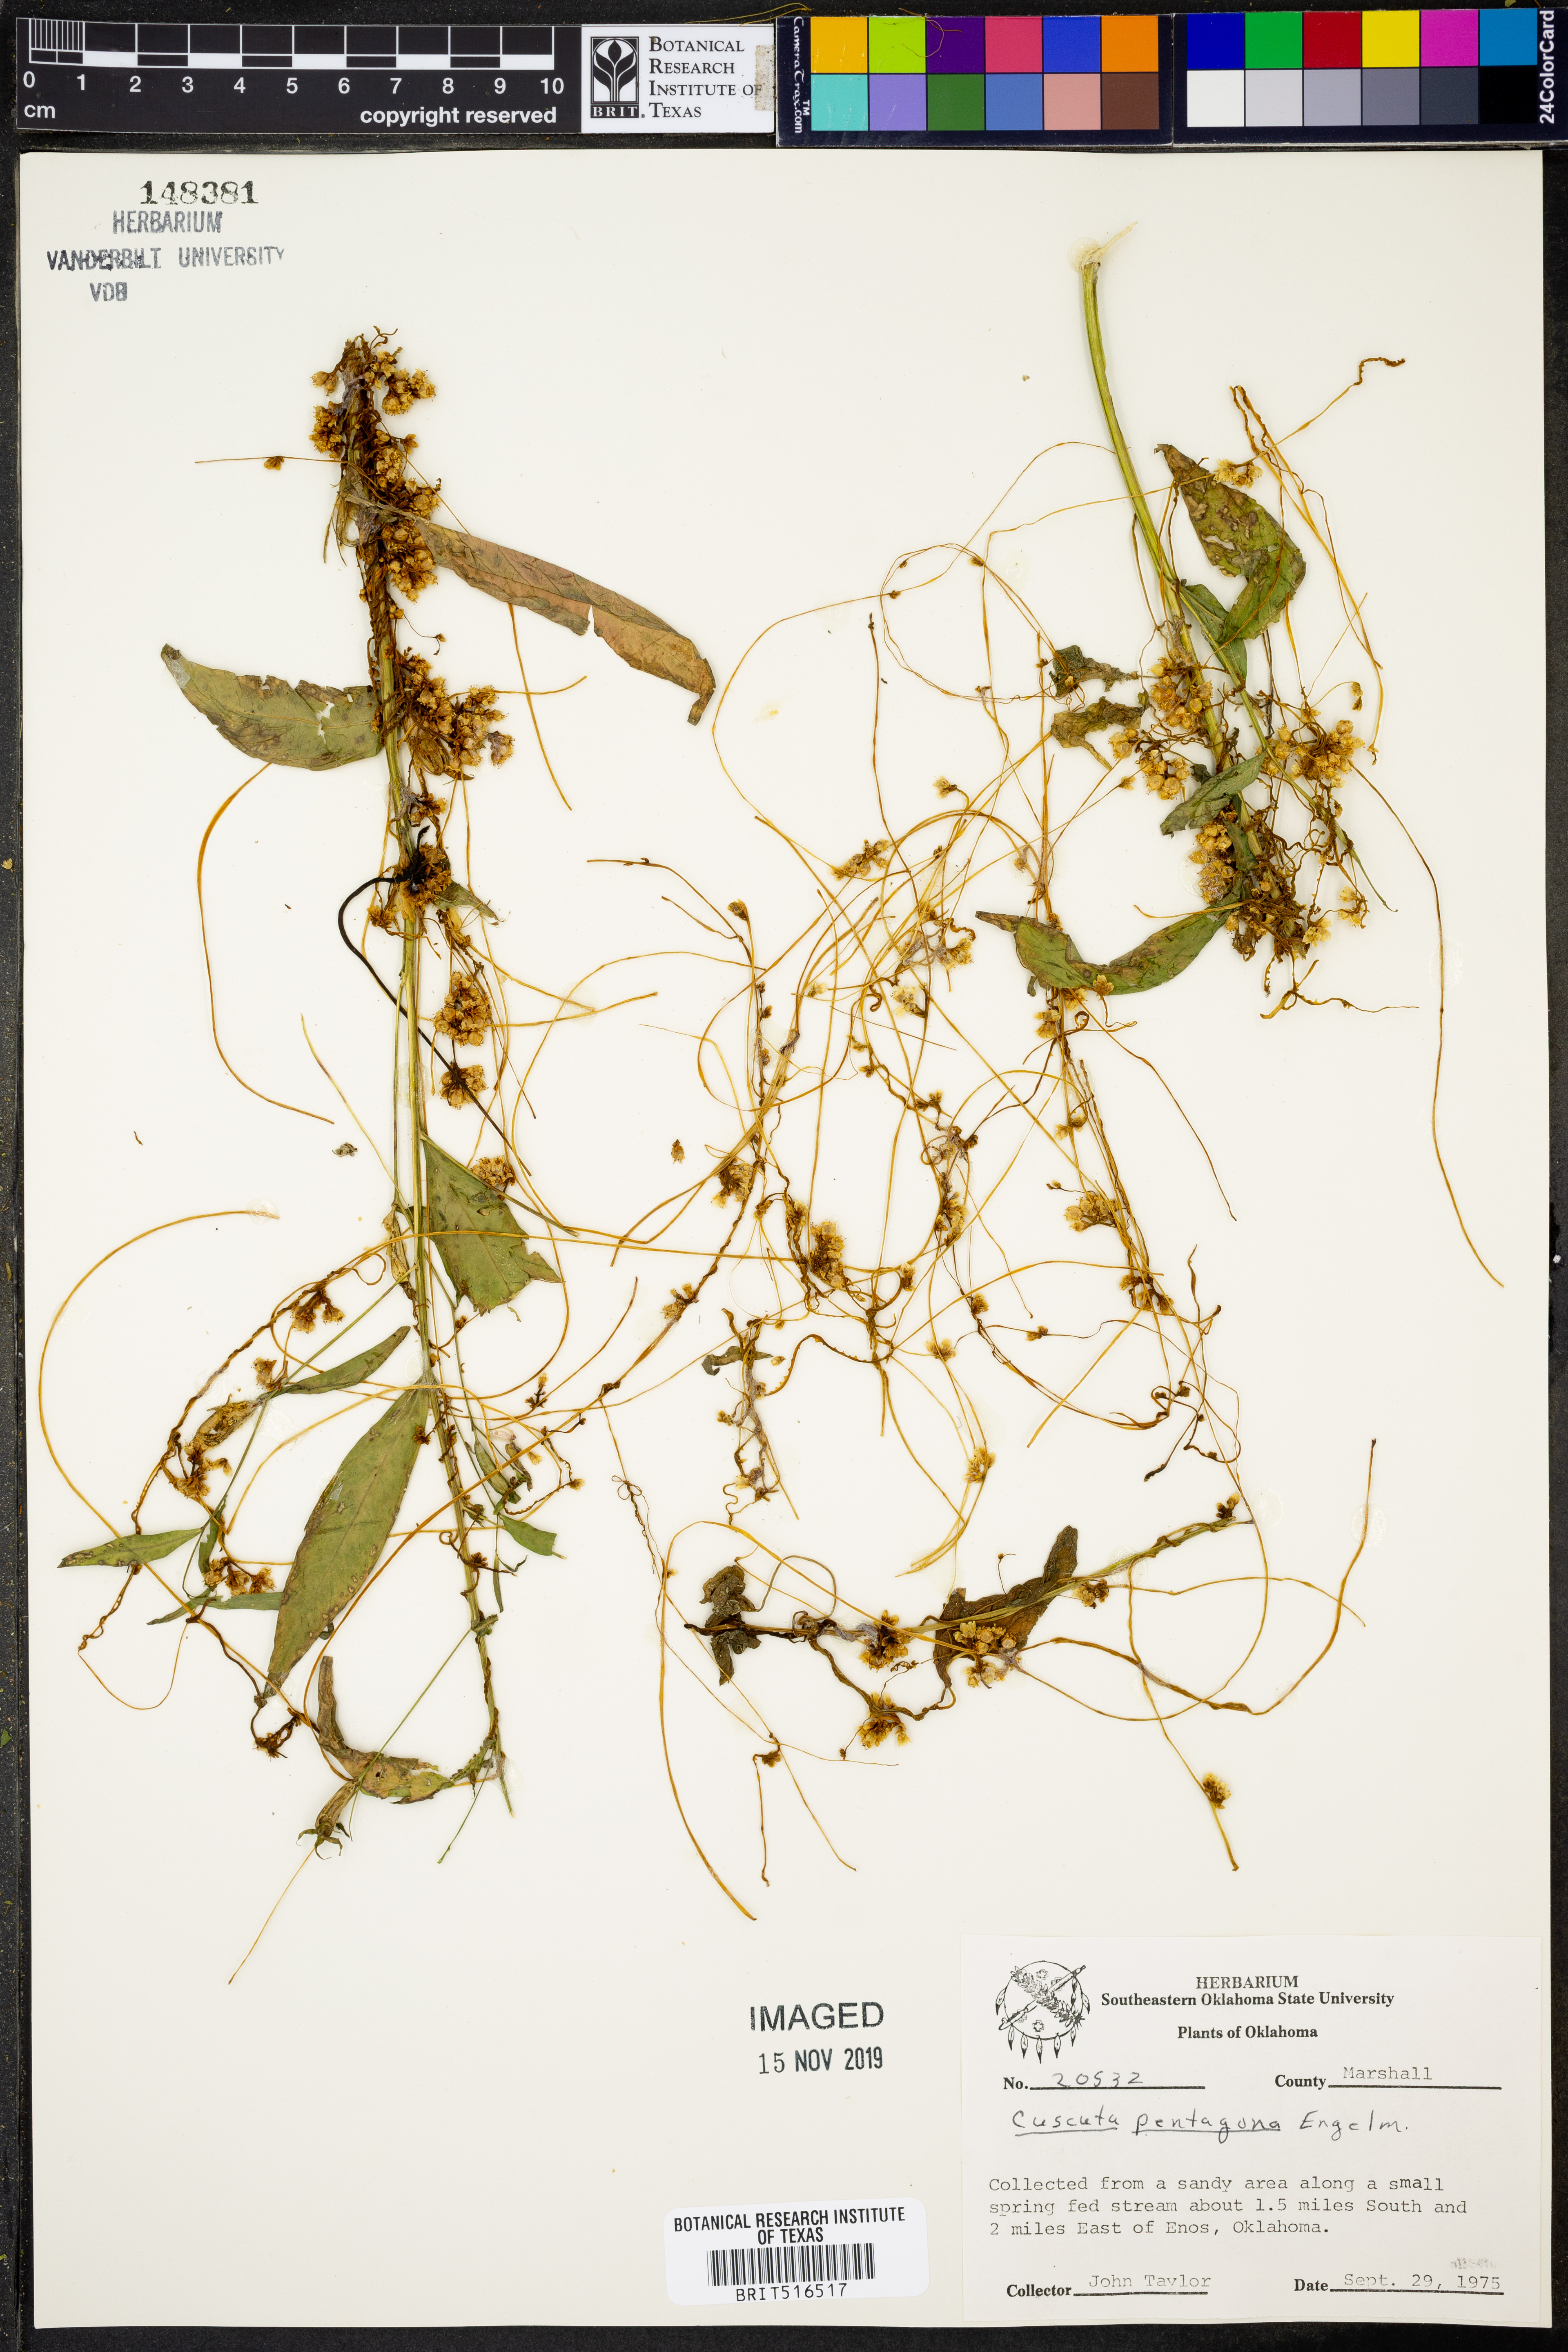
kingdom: Plantae
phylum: Tracheophyta
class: Magnoliopsida
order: Solanales
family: Convolvulaceae
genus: Cuscuta
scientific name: Cuscuta pentagona
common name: Fiveangled dodder
